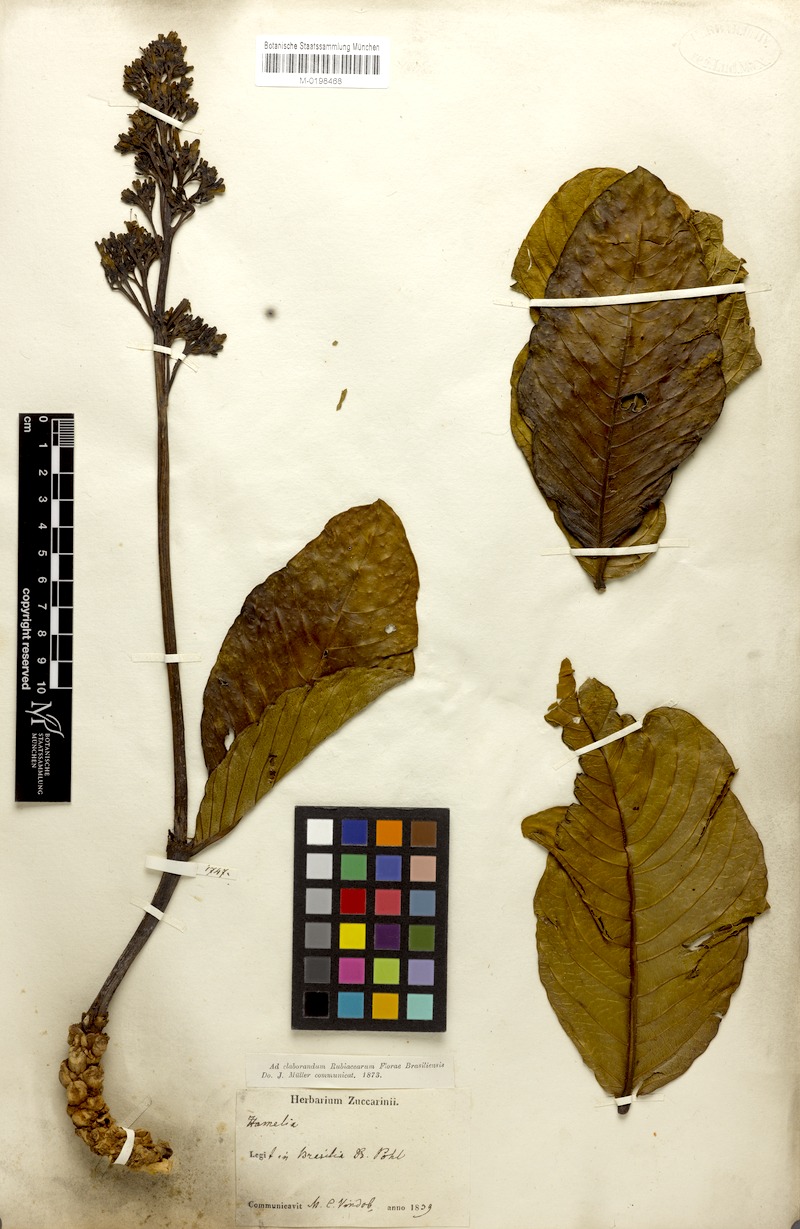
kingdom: Plantae
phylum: Tracheophyta
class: Magnoliopsida
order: Gentianales
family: Rubiaceae
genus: Palicourea
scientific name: Palicourea rigida
